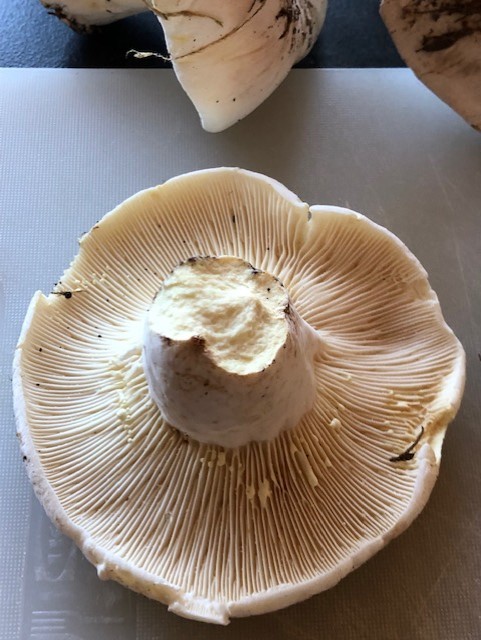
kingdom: Fungi
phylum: Basidiomycota
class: Agaricomycetes
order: Russulales
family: Russulaceae
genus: Lactifluus
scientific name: Lactifluus
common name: mælkehat
